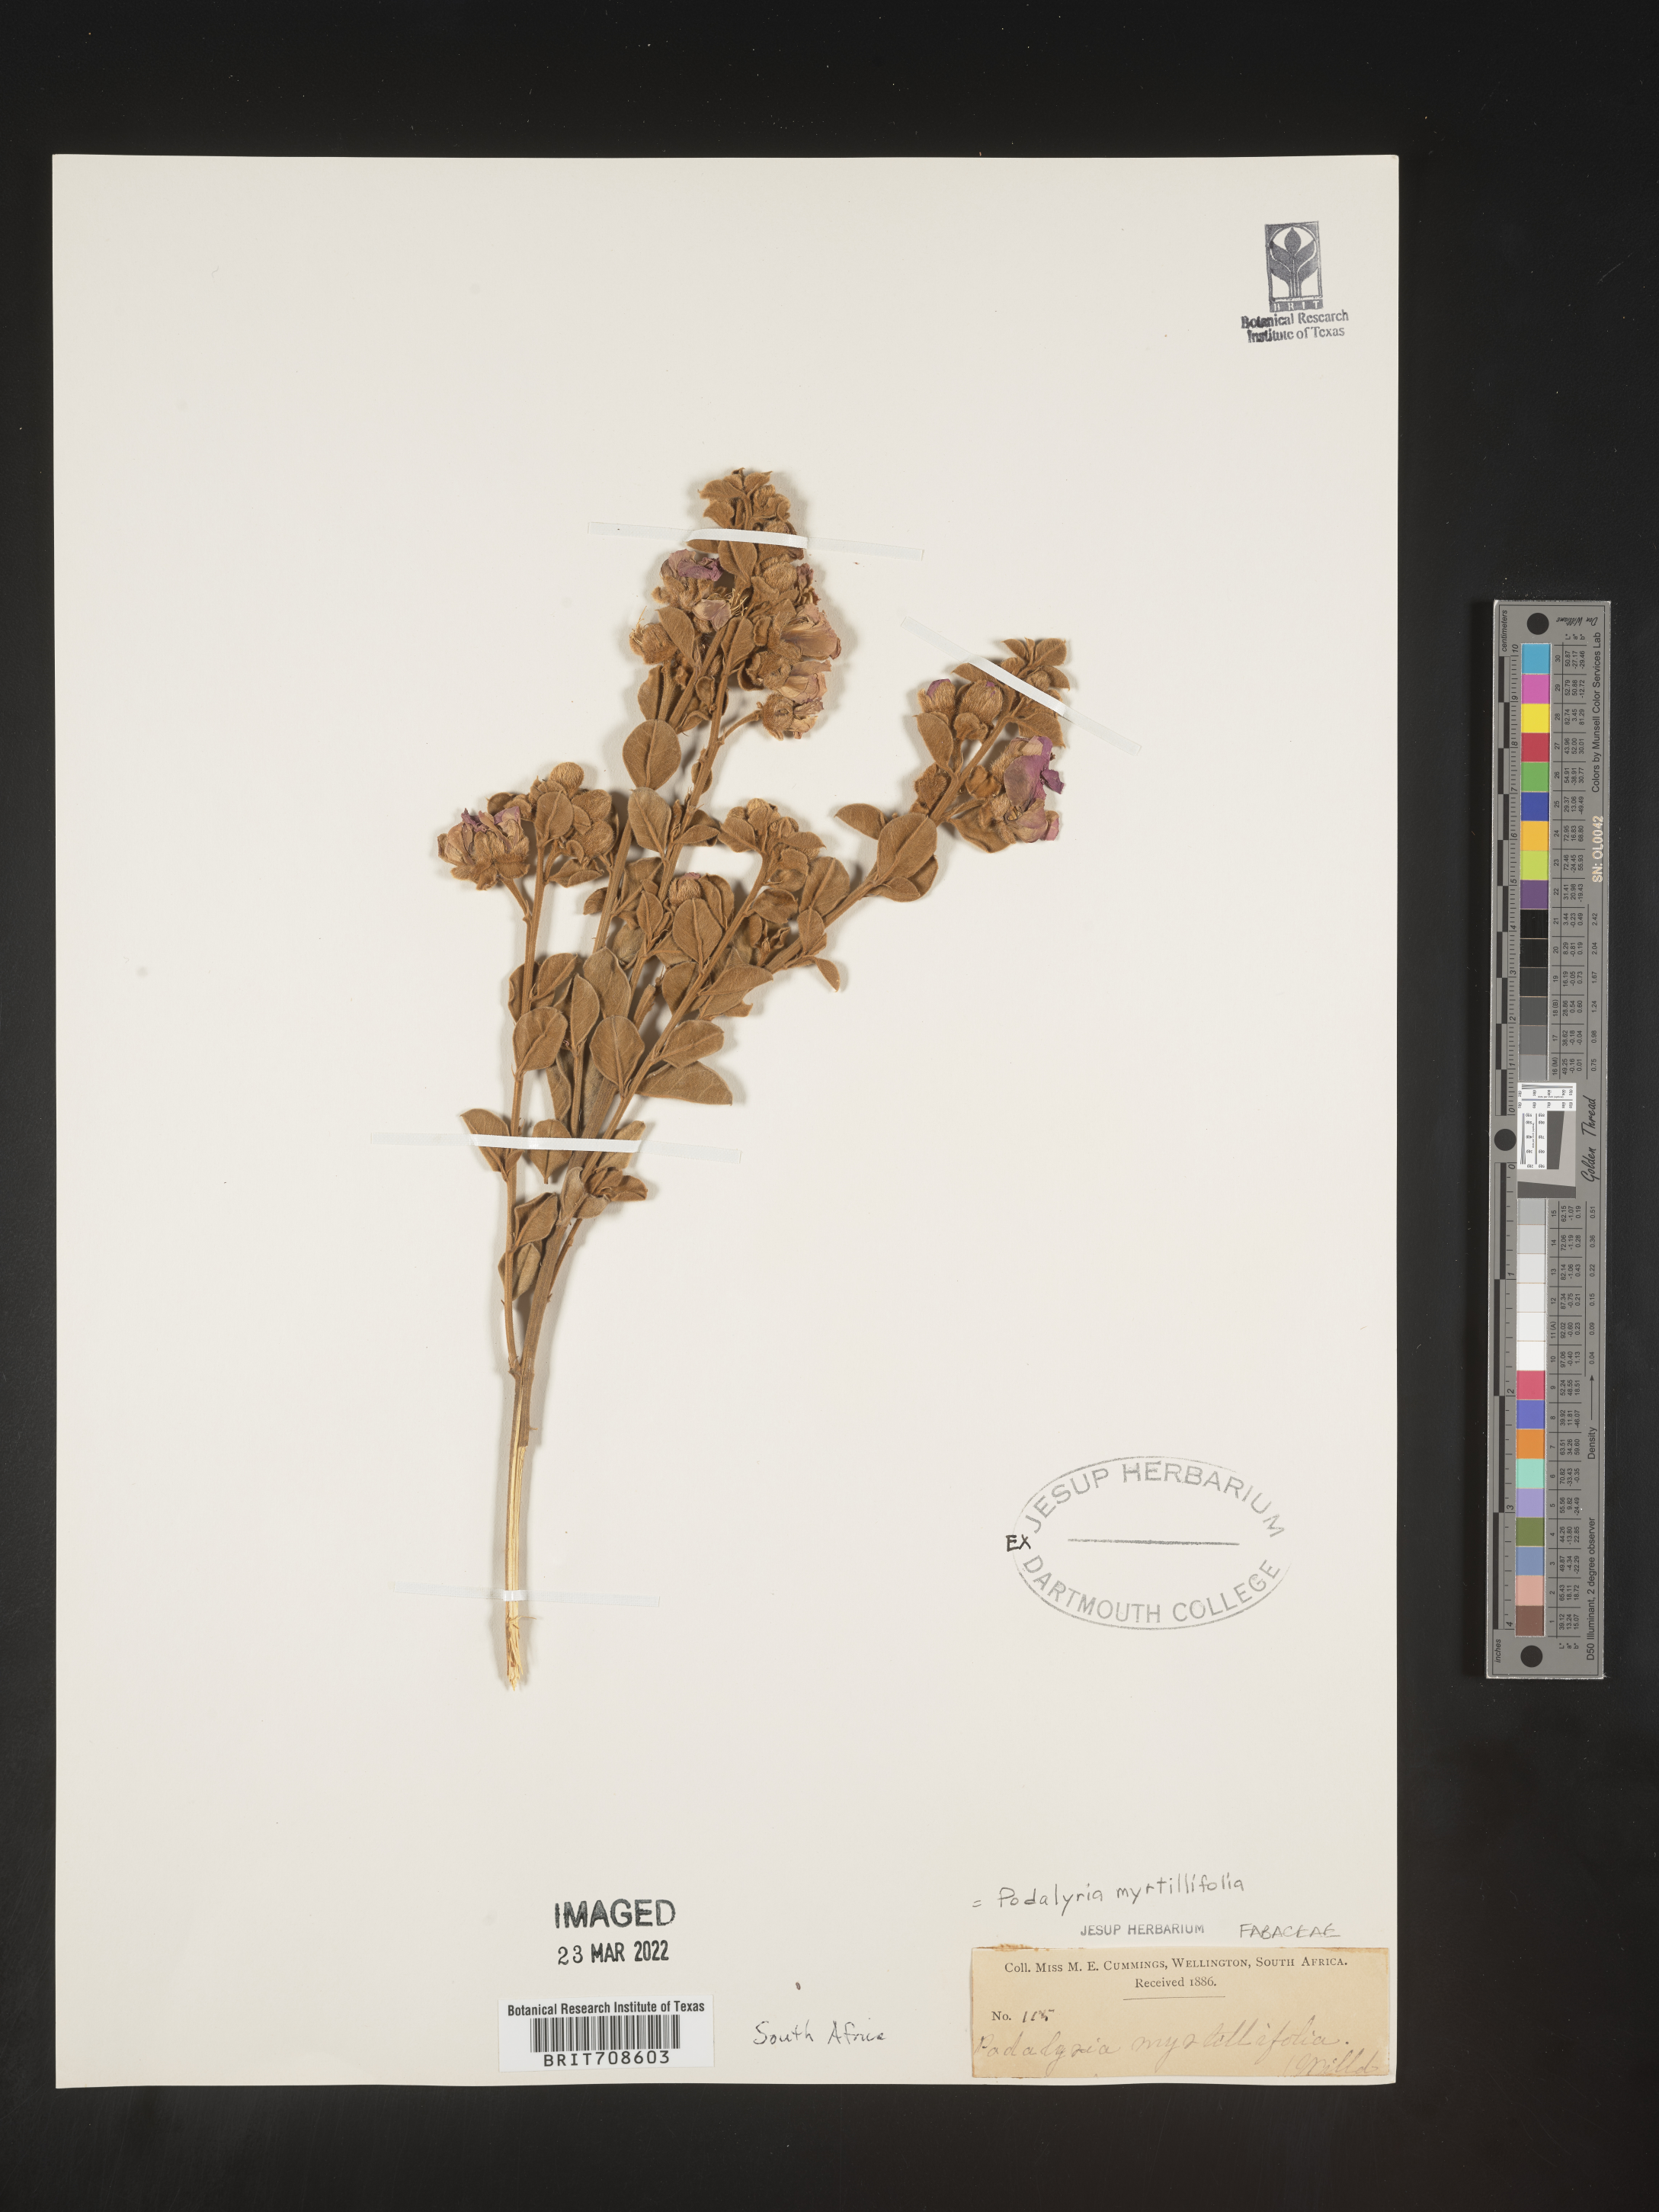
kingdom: Plantae
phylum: Tracheophyta
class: Magnoliopsida
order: Fabales
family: Fabaceae
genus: Podalyria
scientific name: Podalyria
